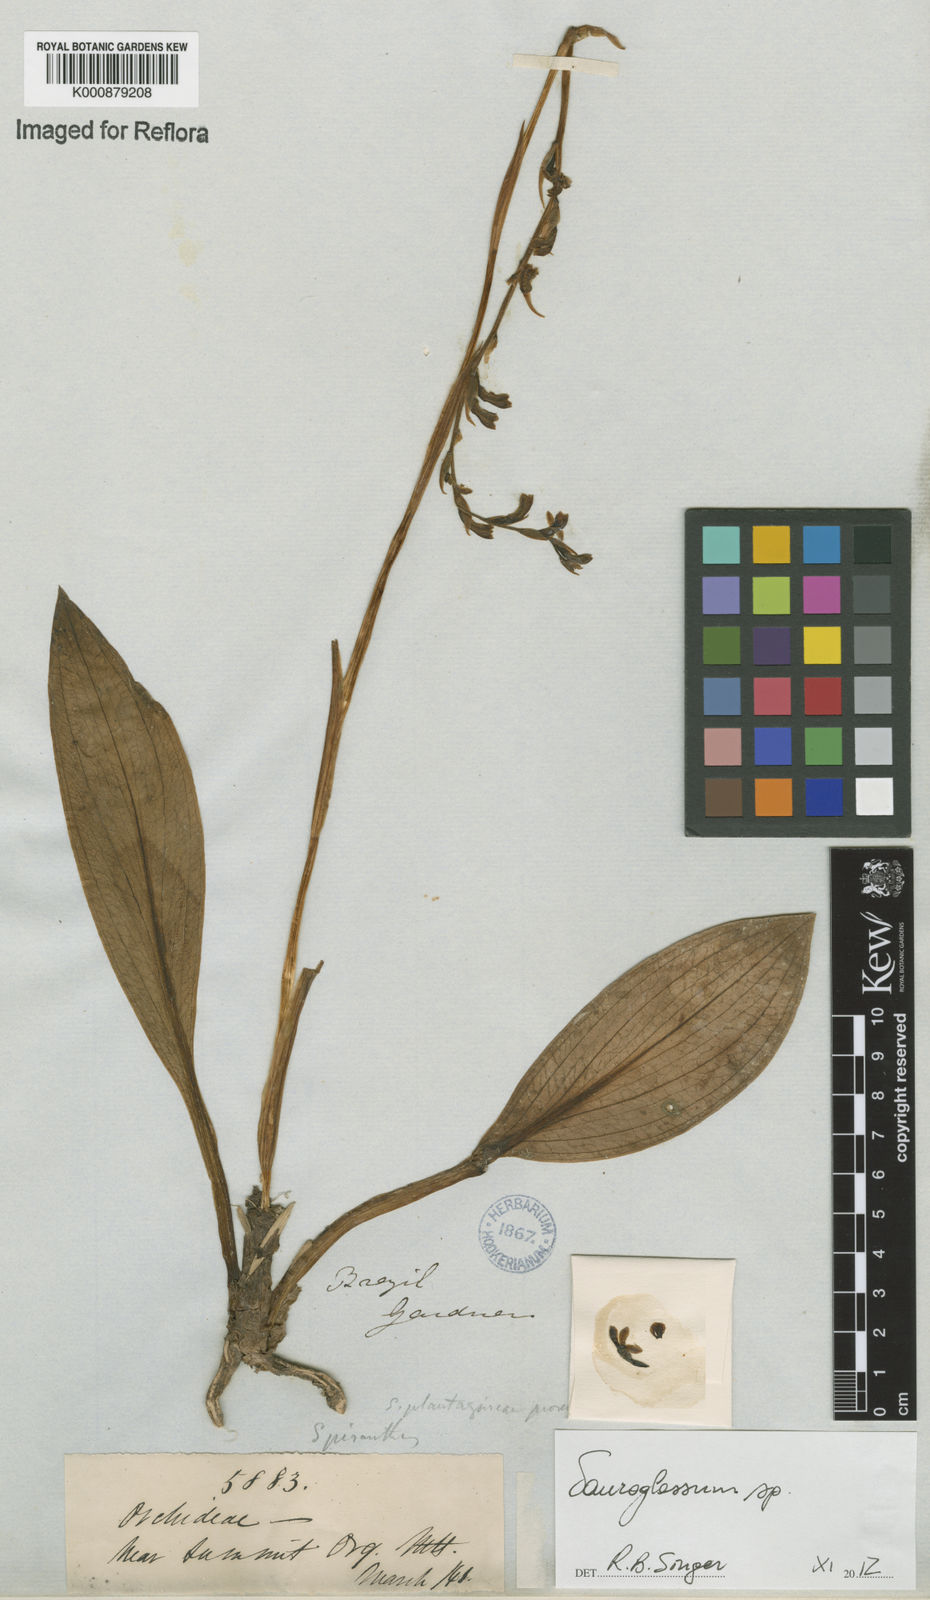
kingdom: Plantae
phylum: Tracheophyta
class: Liliopsida
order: Asparagales
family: Orchidaceae
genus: Sauroglossum
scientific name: Sauroglossum
